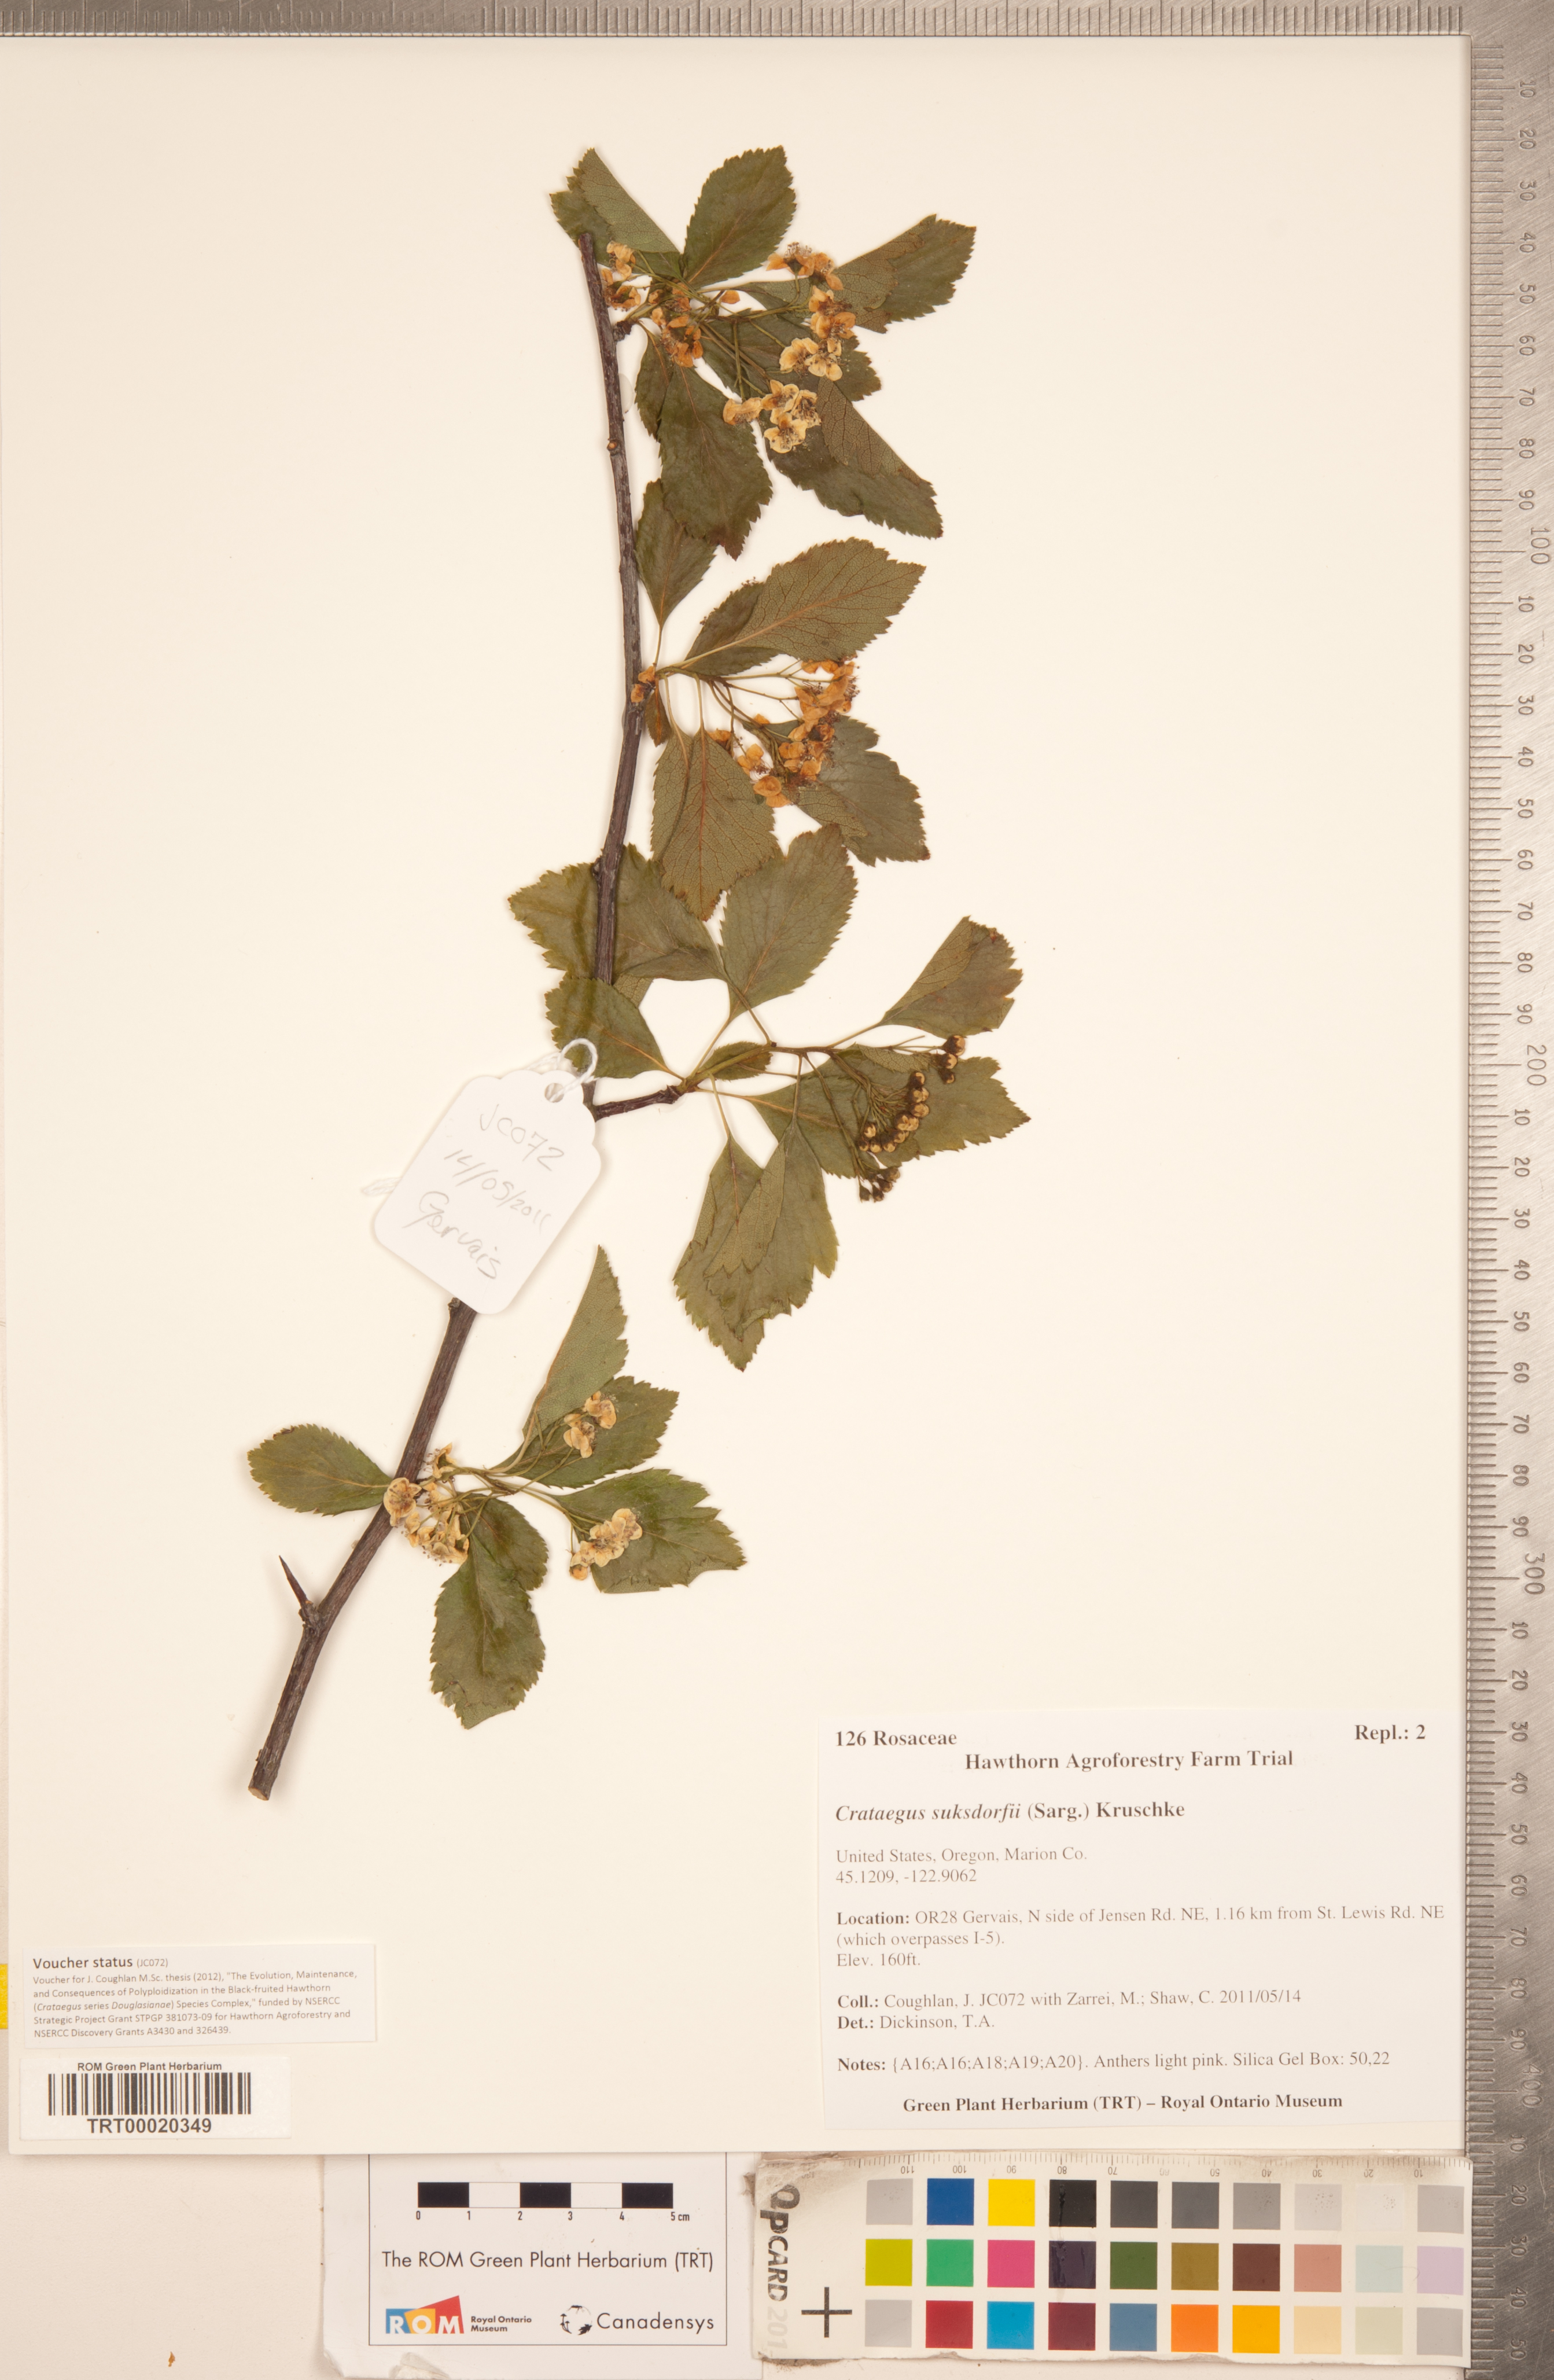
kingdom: Plantae
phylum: Tracheophyta
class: Magnoliopsida
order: Rosales
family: Rosaceae
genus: Crataegus
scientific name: Crataegus gaylussacia
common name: Huckleberry hawthorn
